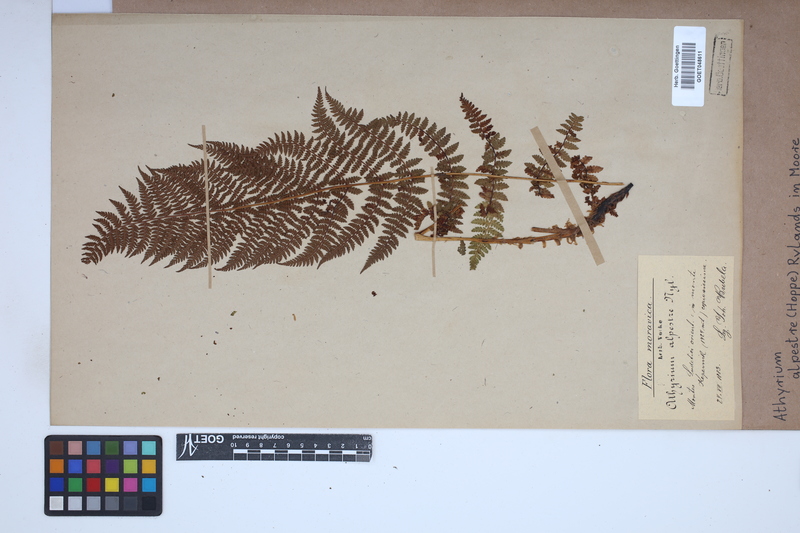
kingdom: Plantae
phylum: Tracheophyta
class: Polypodiopsida
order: Polypodiales
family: Athyriaceae
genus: Pseudathyrium
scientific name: Pseudathyrium alpestre
